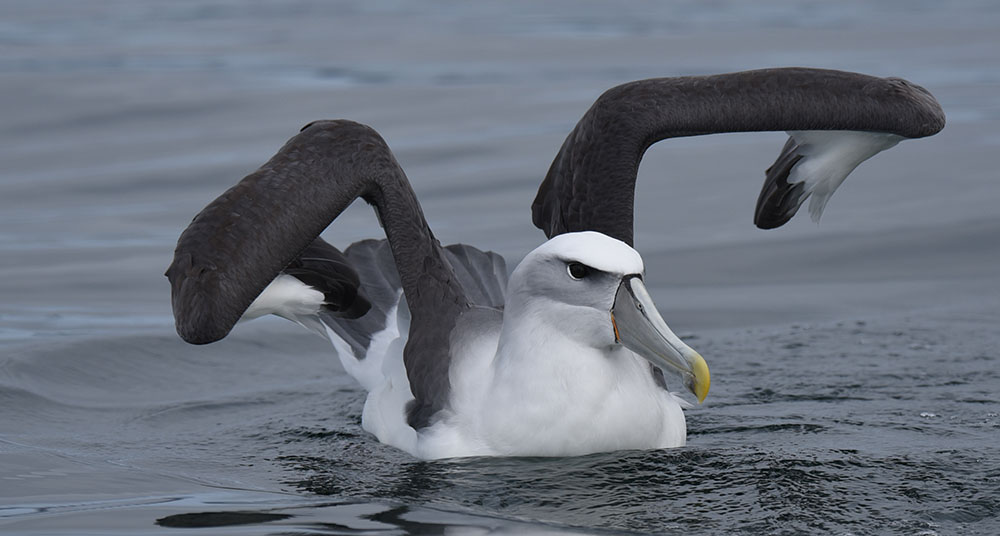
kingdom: Animalia
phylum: Chordata
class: Aves
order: Procellariiformes
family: Diomedeidae
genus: Thalassarche
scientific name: Thalassarche salvini
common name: Salvin's albatross
